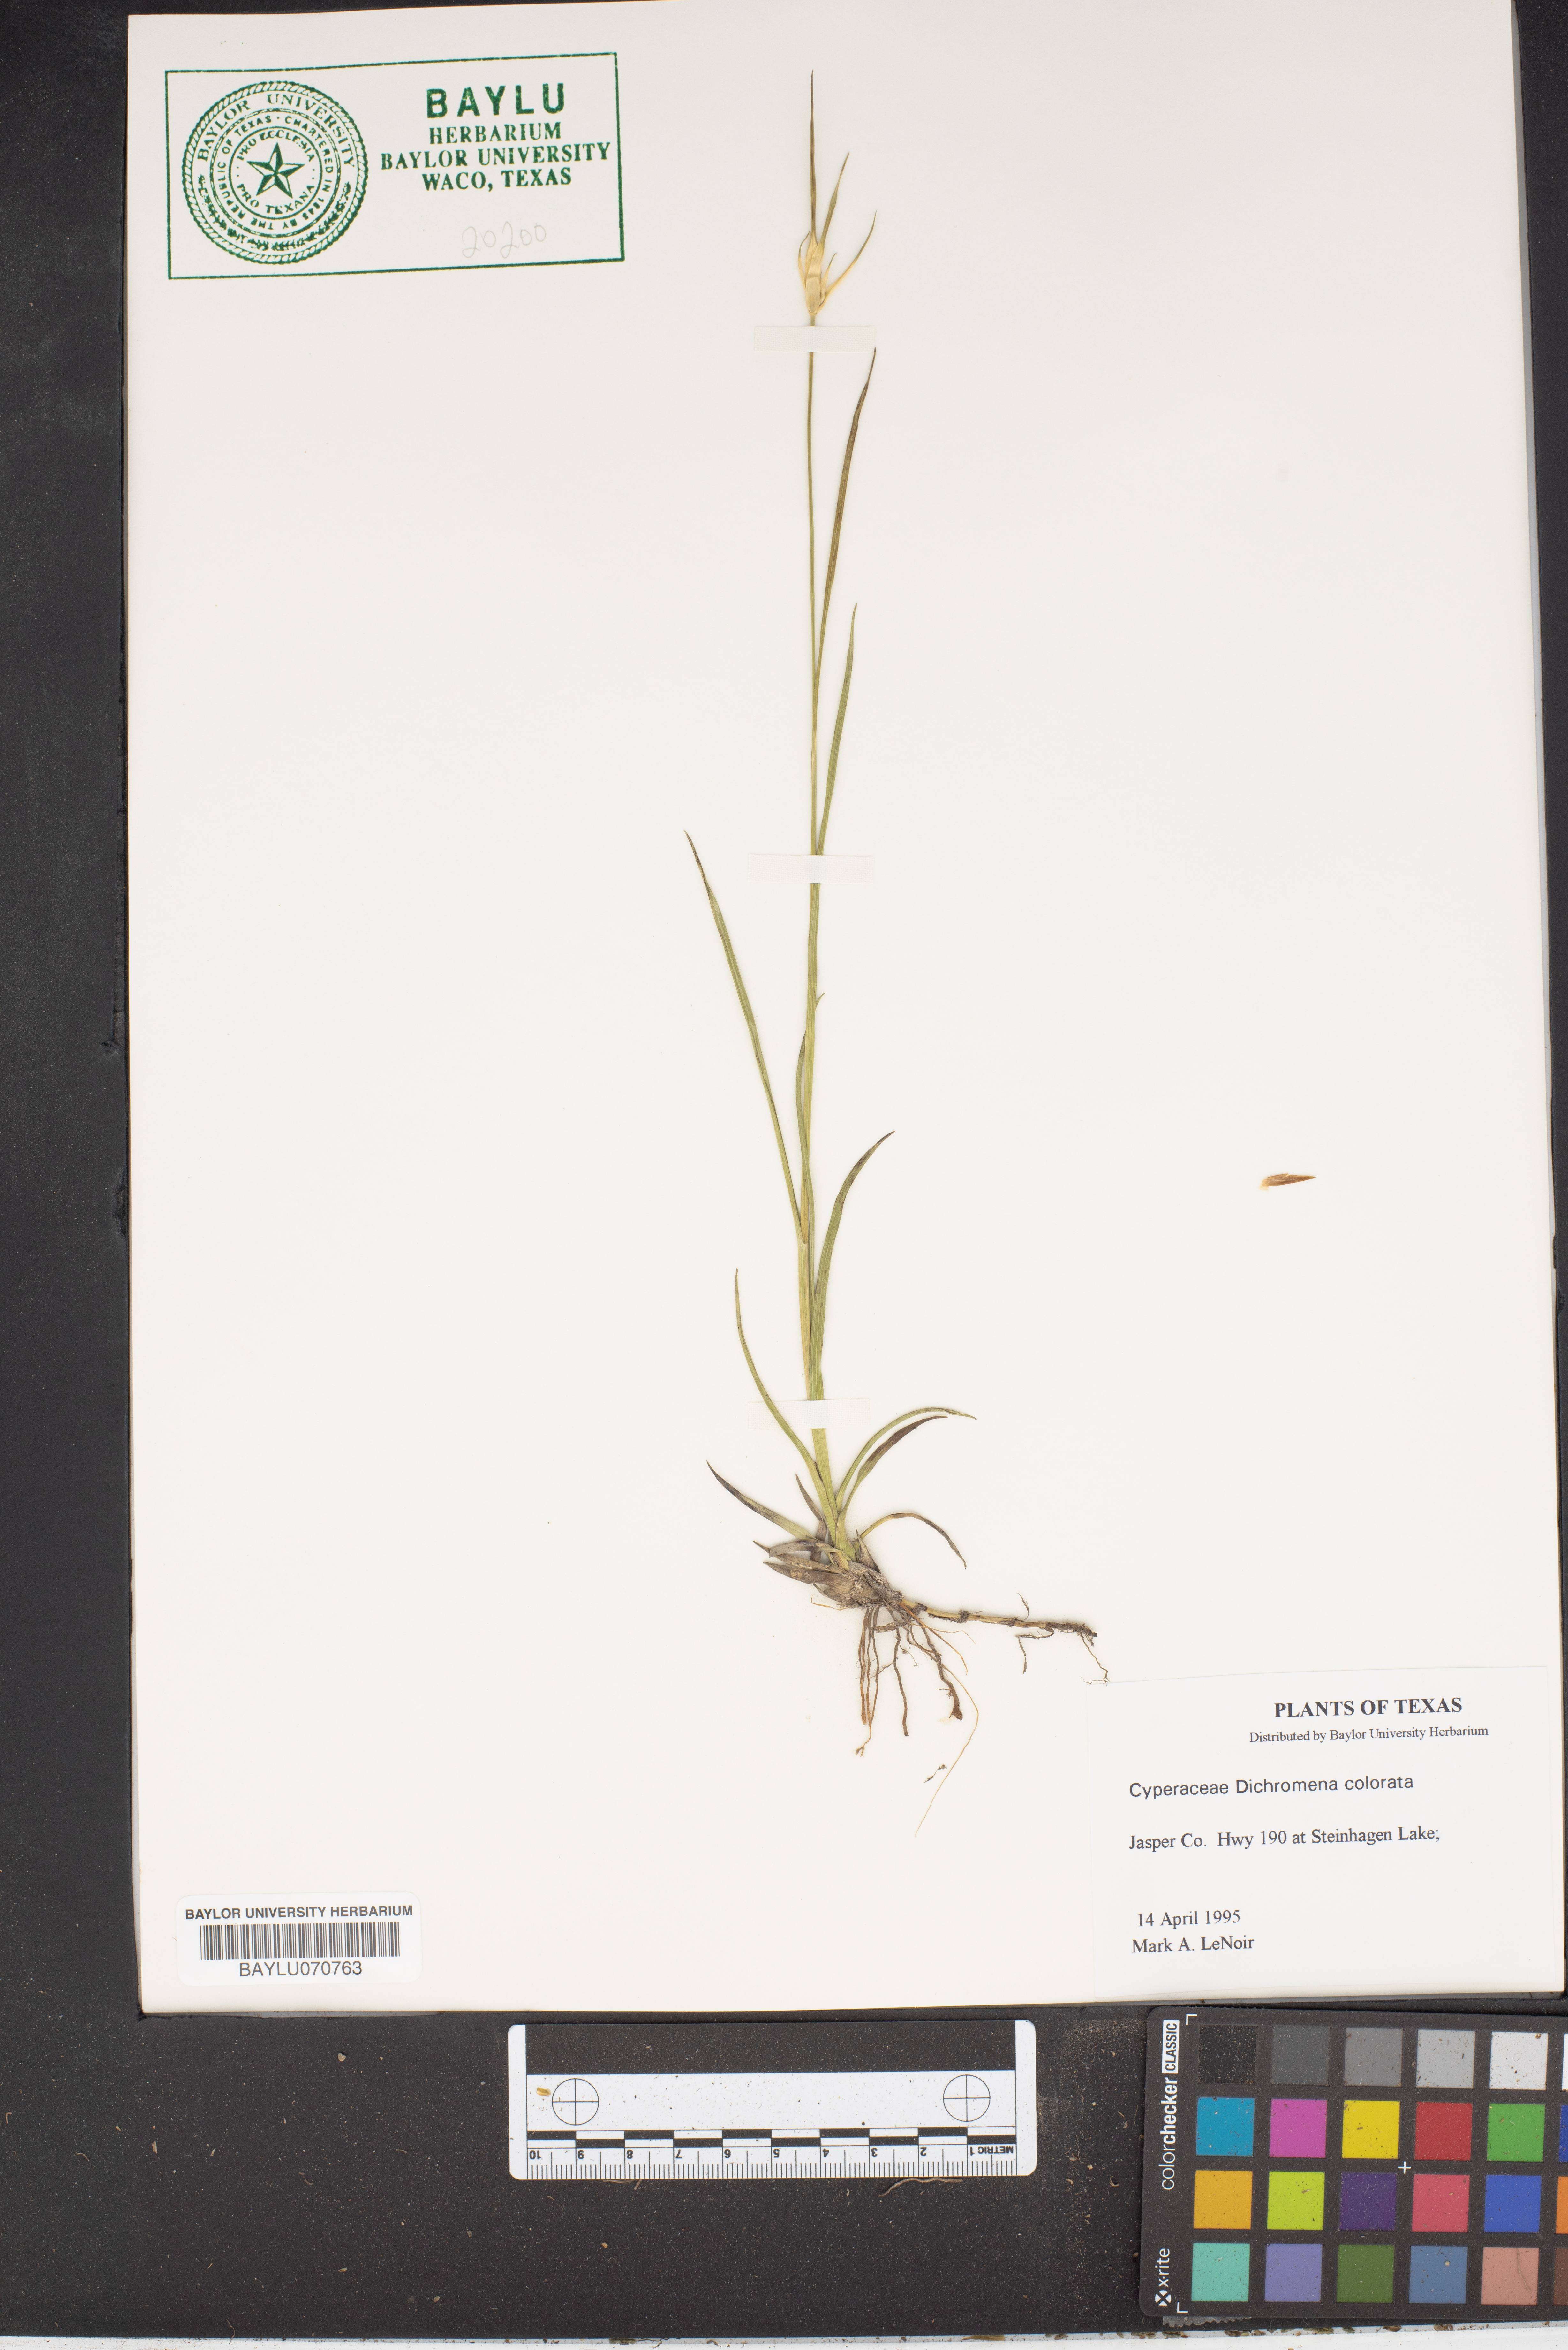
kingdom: Plantae
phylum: Tracheophyta
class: Liliopsida
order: Poales
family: Cyperaceae
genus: Rhynchospora
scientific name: Rhynchospora colorata
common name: Star sedge
